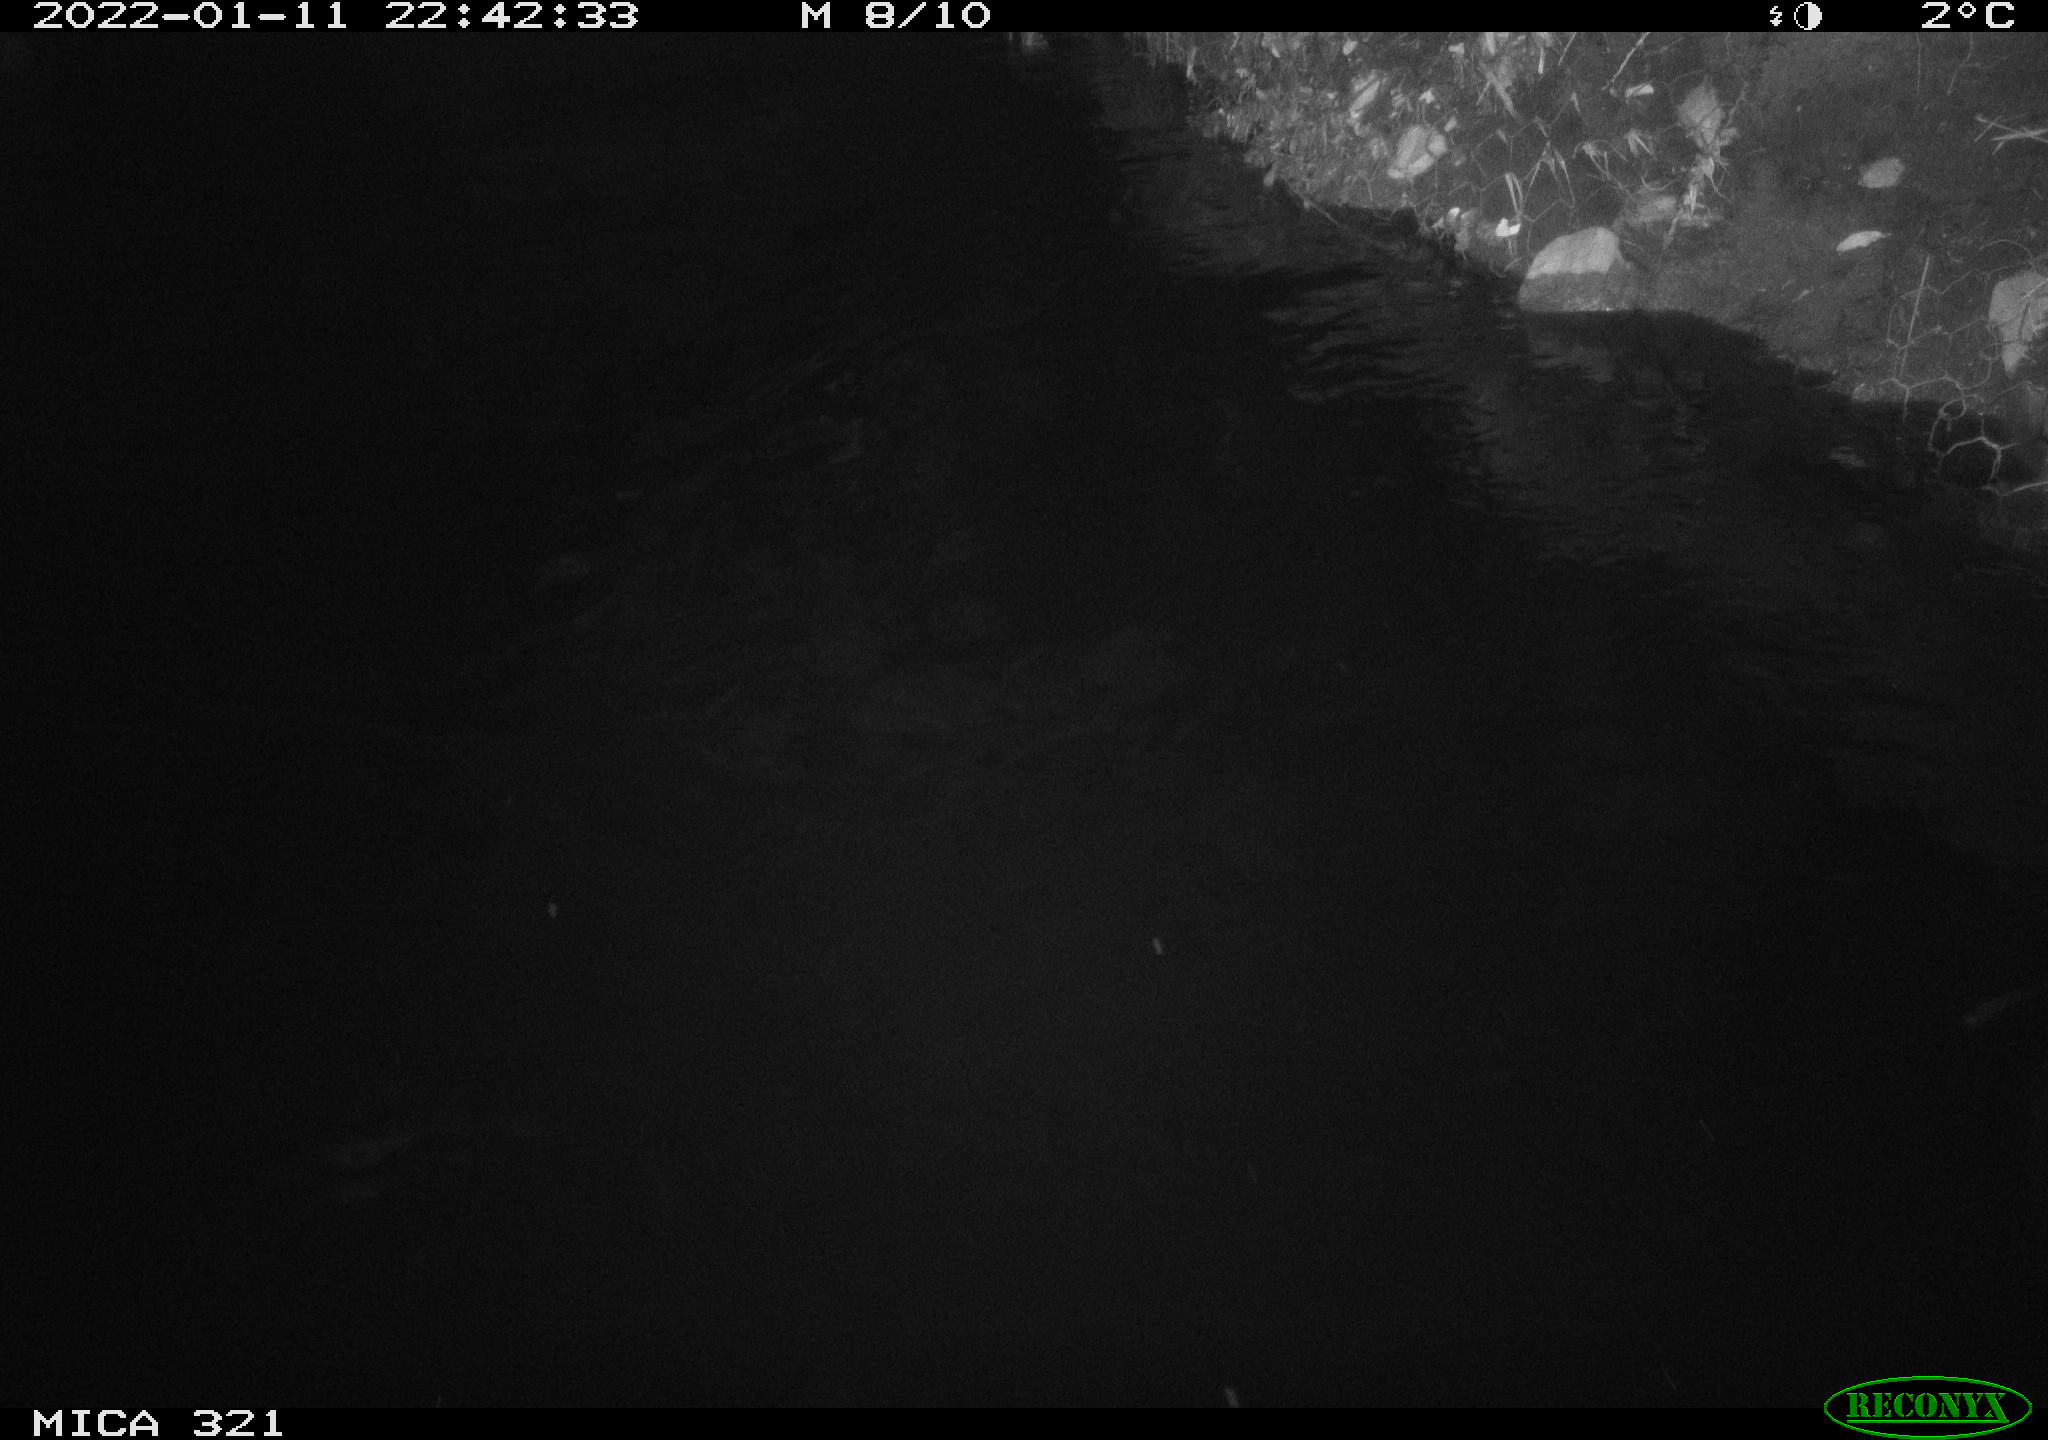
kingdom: Animalia
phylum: Chordata
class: Aves
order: Anseriformes
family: Anatidae
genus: Anas
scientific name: Anas
